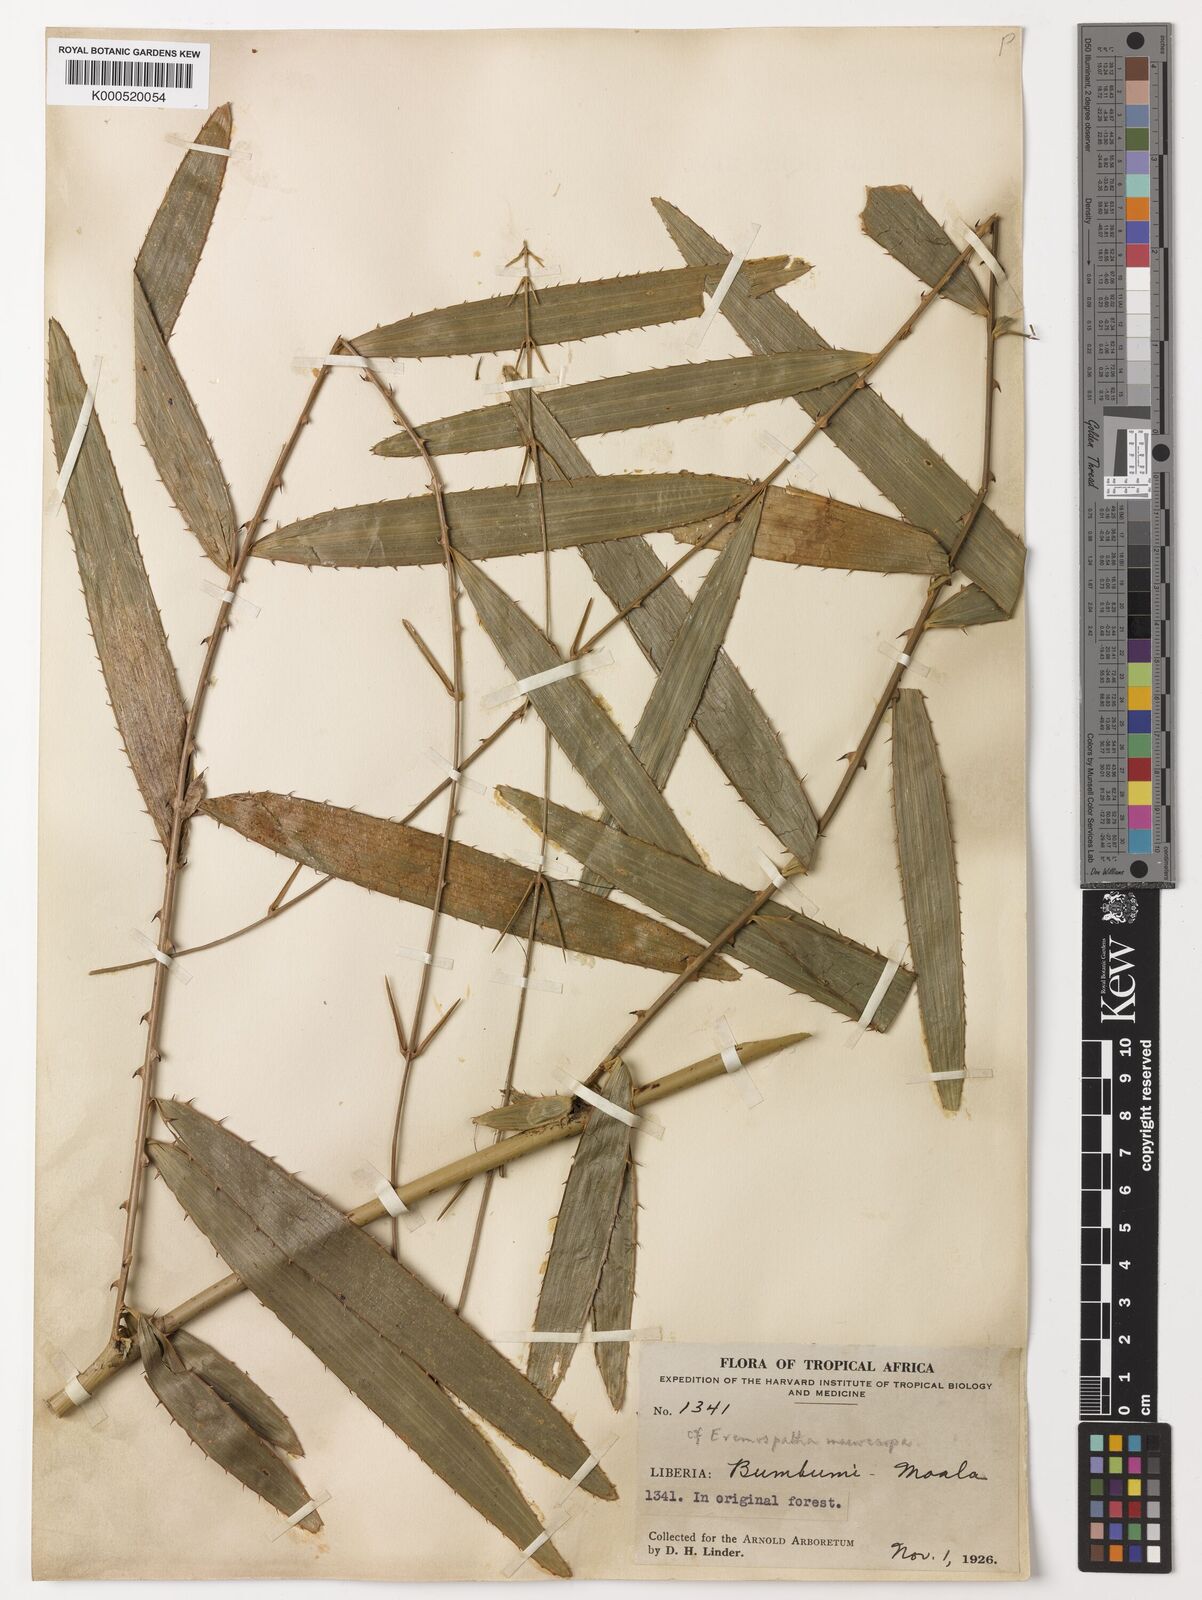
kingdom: Plantae
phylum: Tracheophyta
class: Liliopsida
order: Arecales
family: Arecaceae
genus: Eremospatha
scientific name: Eremospatha
